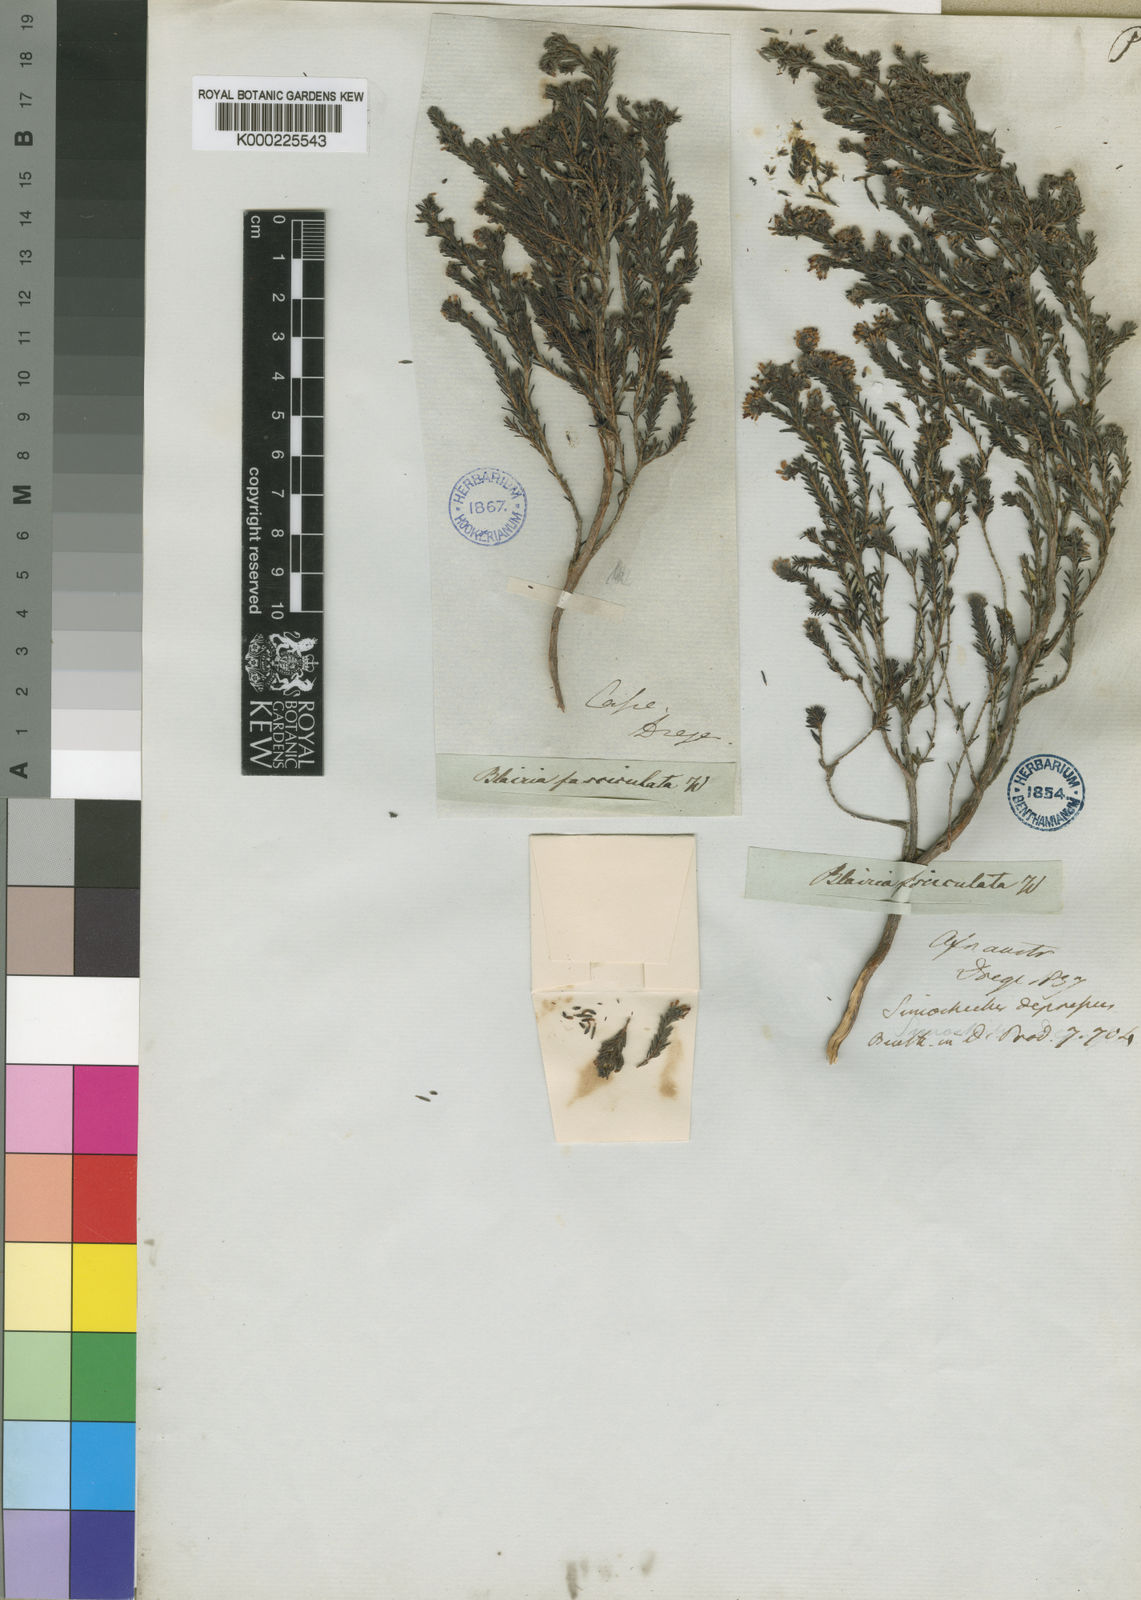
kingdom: Plantae
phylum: Tracheophyta
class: Magnoliopsida
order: Ericales
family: Ericaceae
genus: Erica
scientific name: Erica glabella
